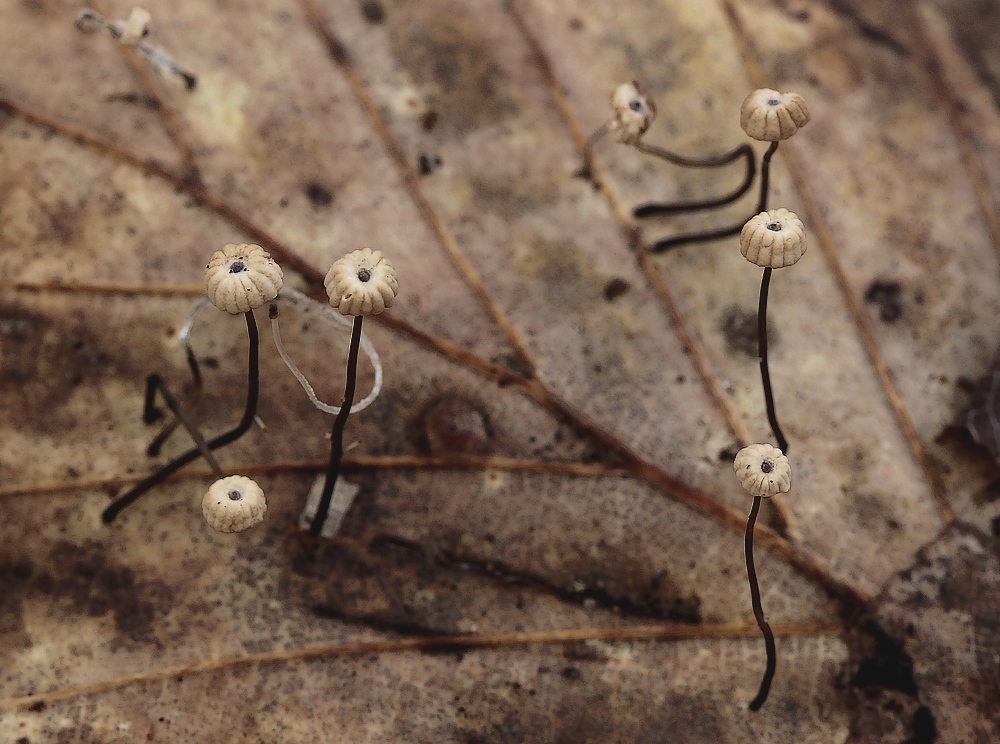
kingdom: Fungi
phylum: Basidiomycota
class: Agaricomycetes
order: Agaricales
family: Marasmiaceae
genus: Marasmius
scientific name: Marasmius bulliardii
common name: furet bruskhat
